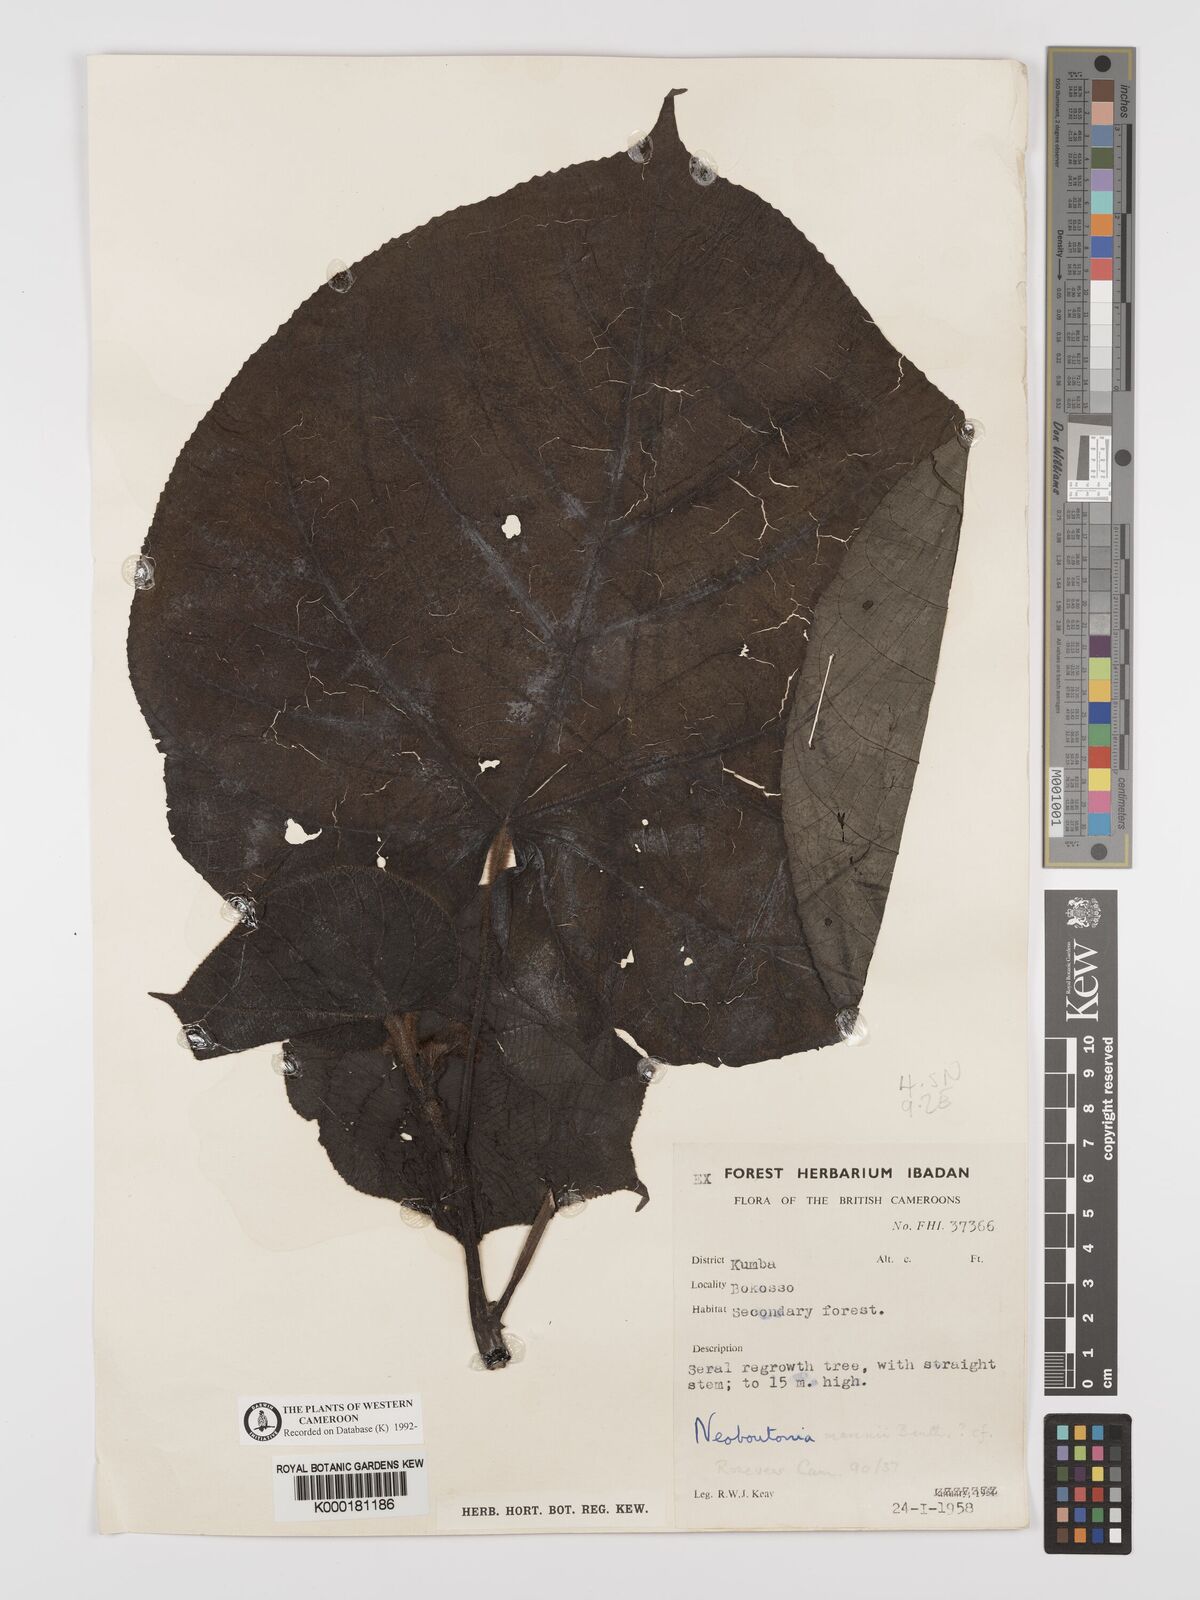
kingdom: Plantae
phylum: Tracheophyta
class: Magnoliopsida
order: Malpighiales
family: Euphorbiaceae
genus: Neoboutonia
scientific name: Neoboutonia mannii
